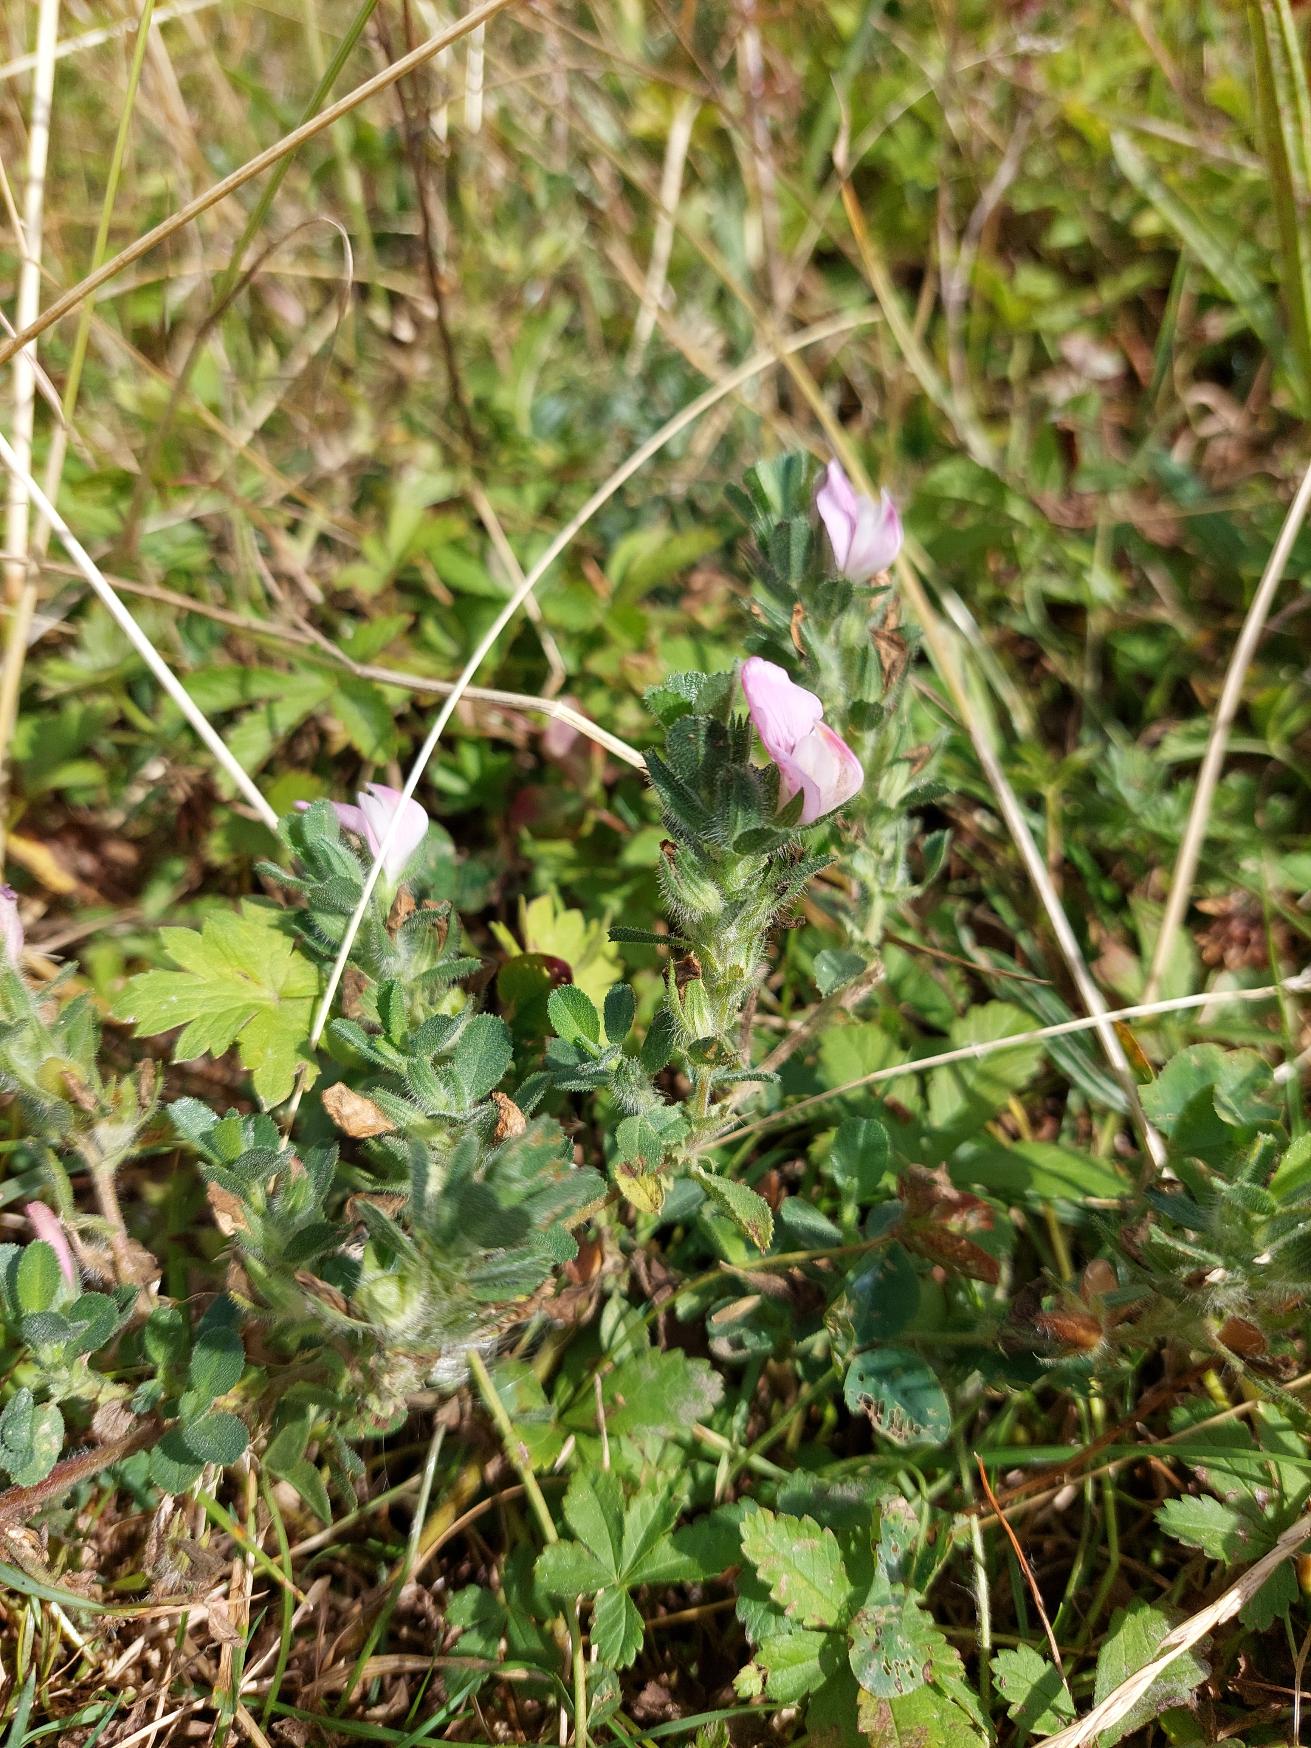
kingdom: Plantae
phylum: Tracheophyta
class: Magnoliopsida
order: Fabales
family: Fabaceae
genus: Ononis
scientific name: Ononis spinosa
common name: Krageklo
